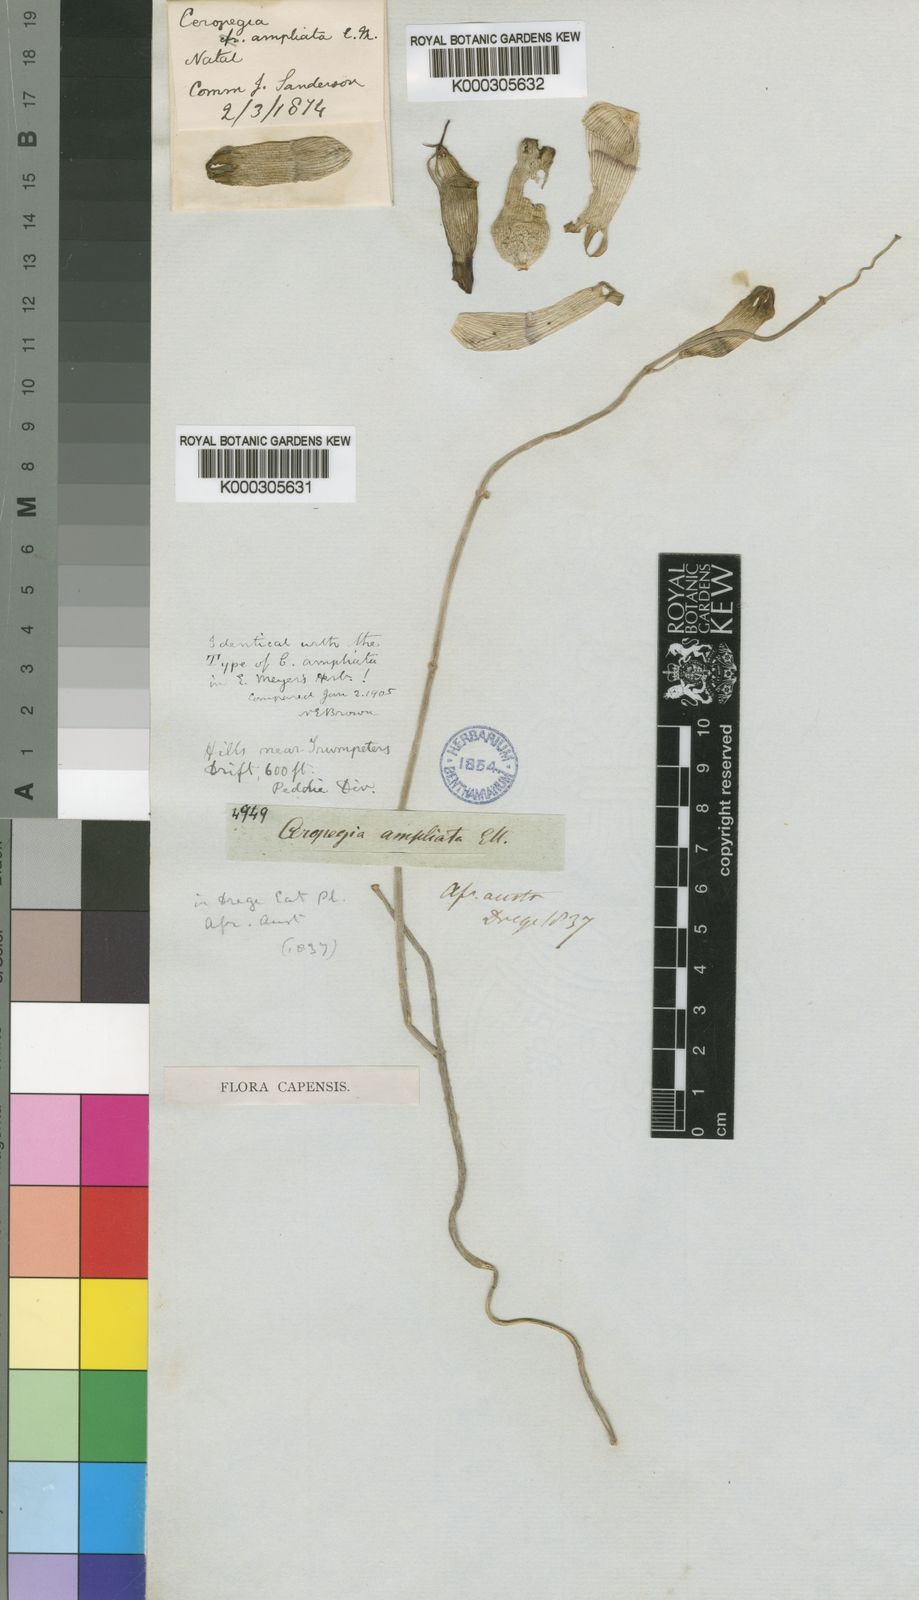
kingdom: Plantae
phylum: Tracheophyta
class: Magnoliopsida
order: Gentianales
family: Apocynaceae
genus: Ceropegia
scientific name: Ceropegia ampliata
